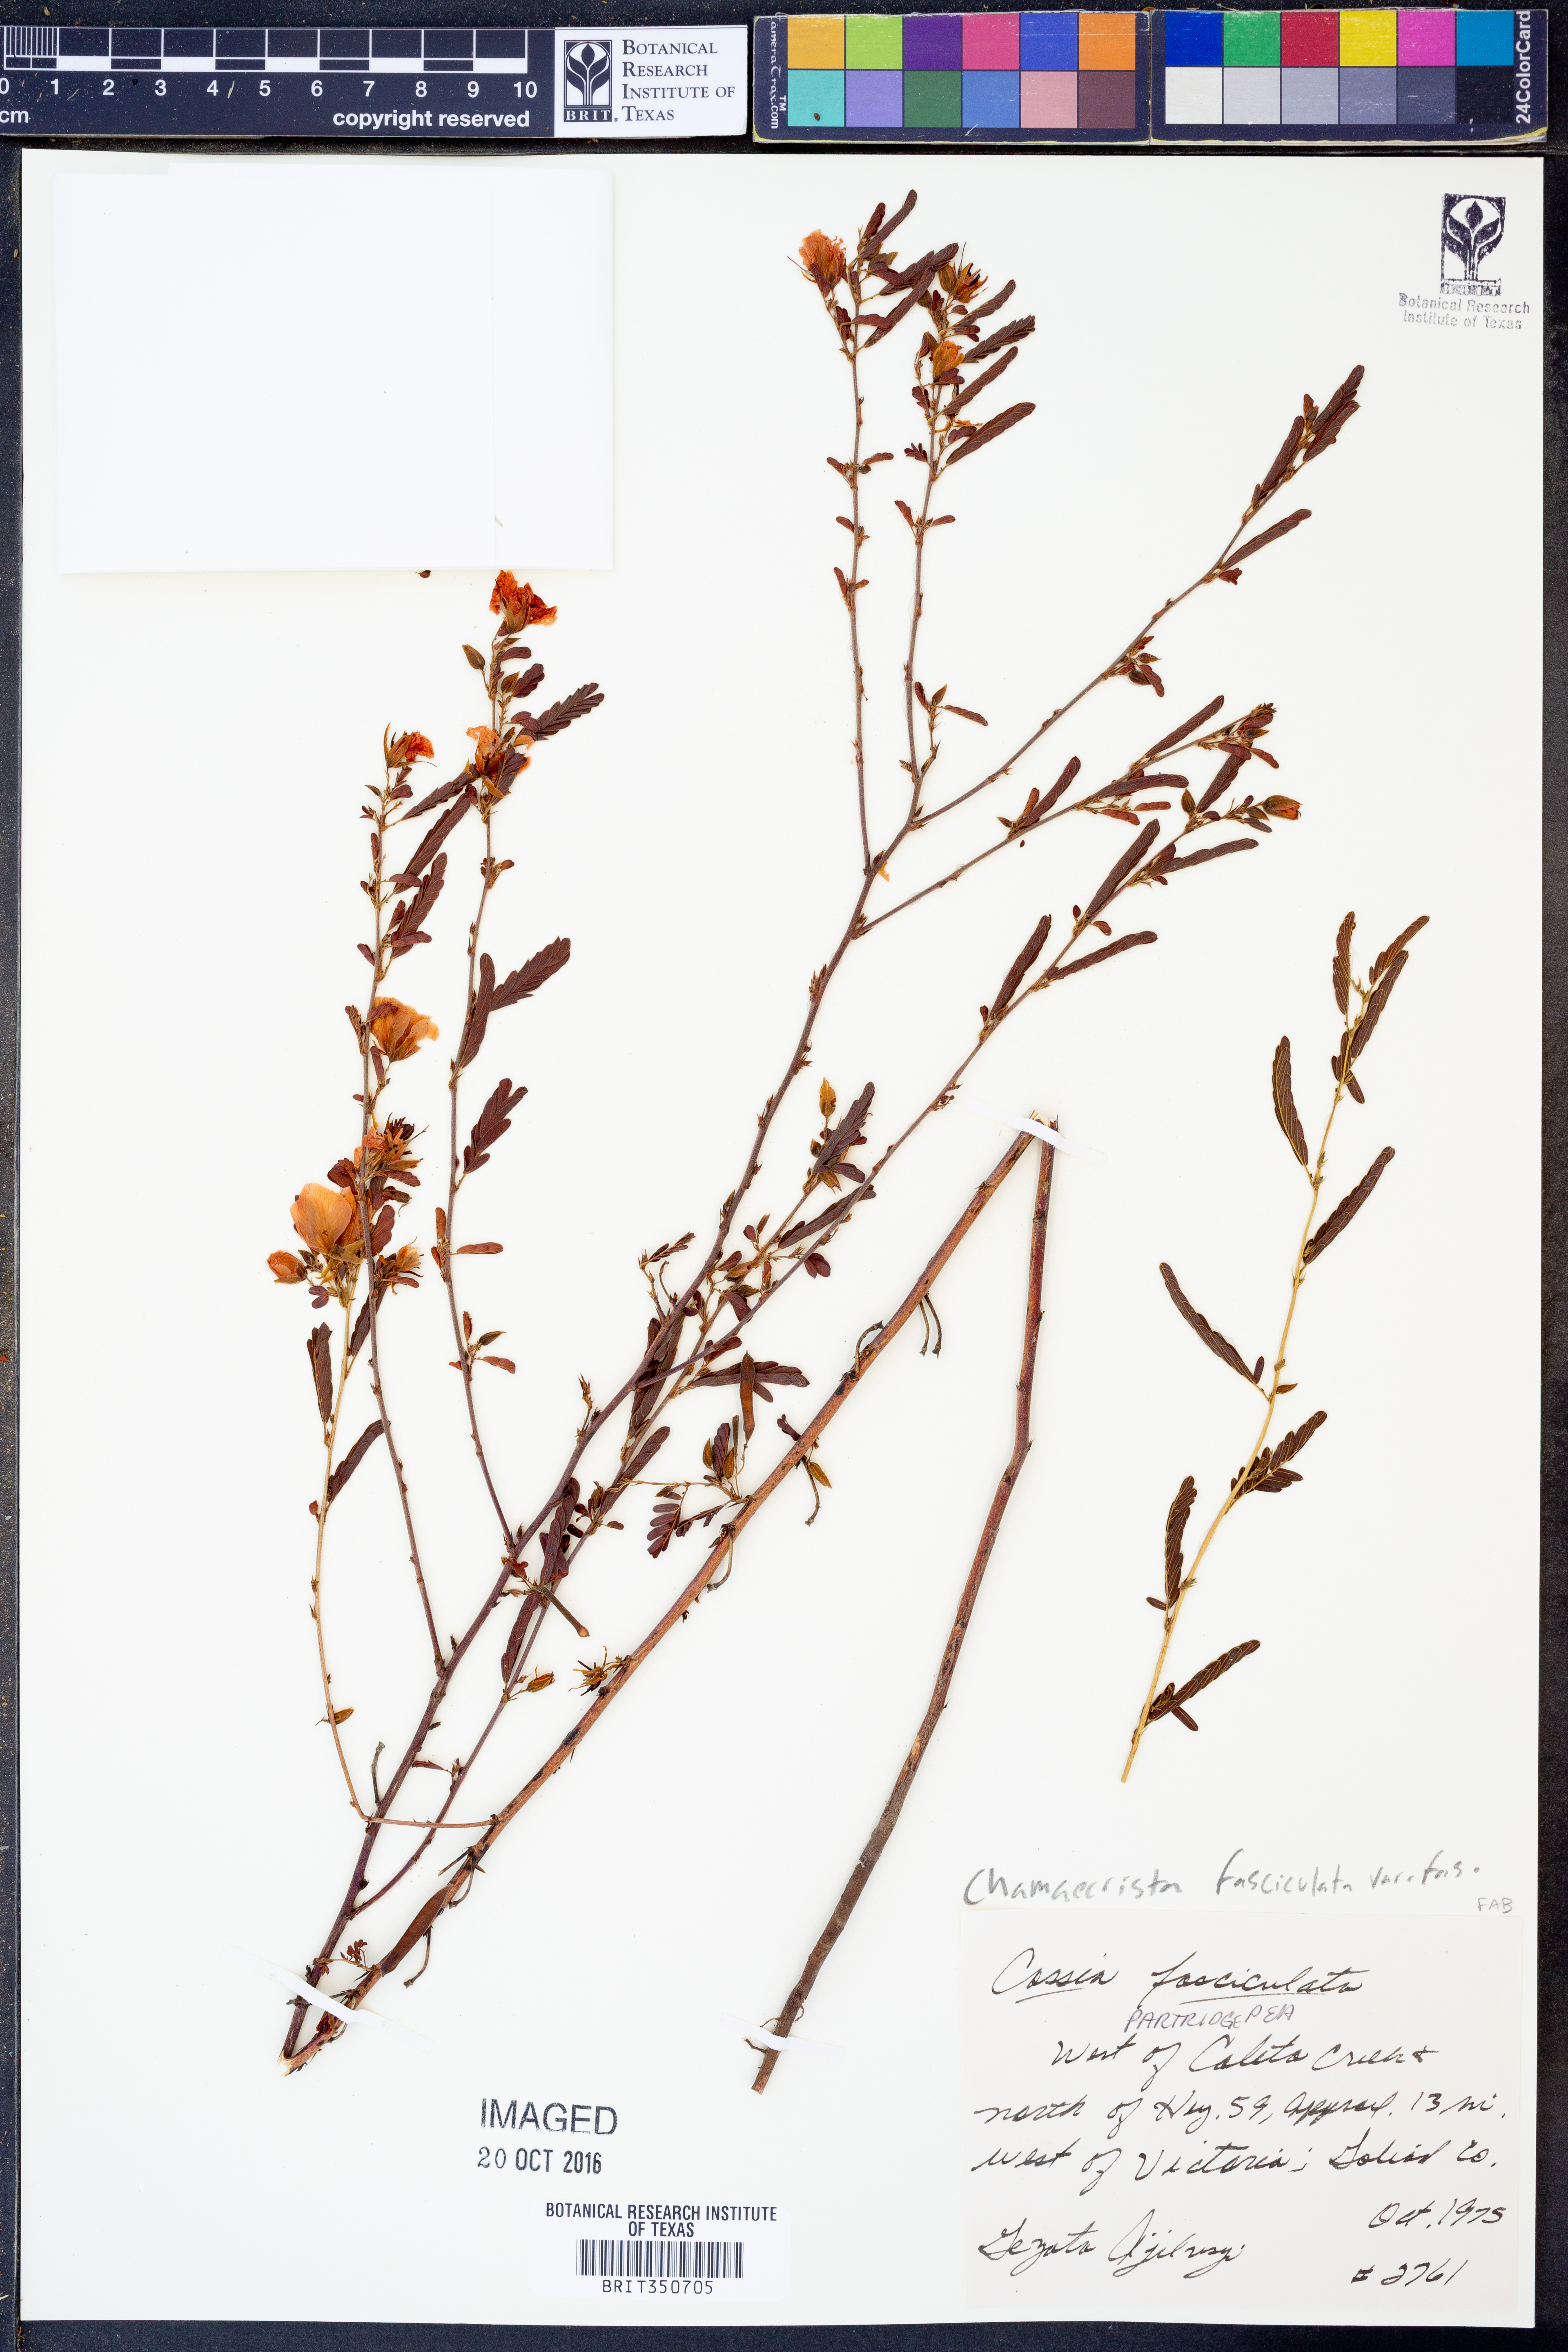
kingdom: Plantae
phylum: Tracheophyta
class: Magnoliopsida
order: Fabales
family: Fabaceae
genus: Chamaecrista
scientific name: Chamaecrista fasciculata
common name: Golden cassia
